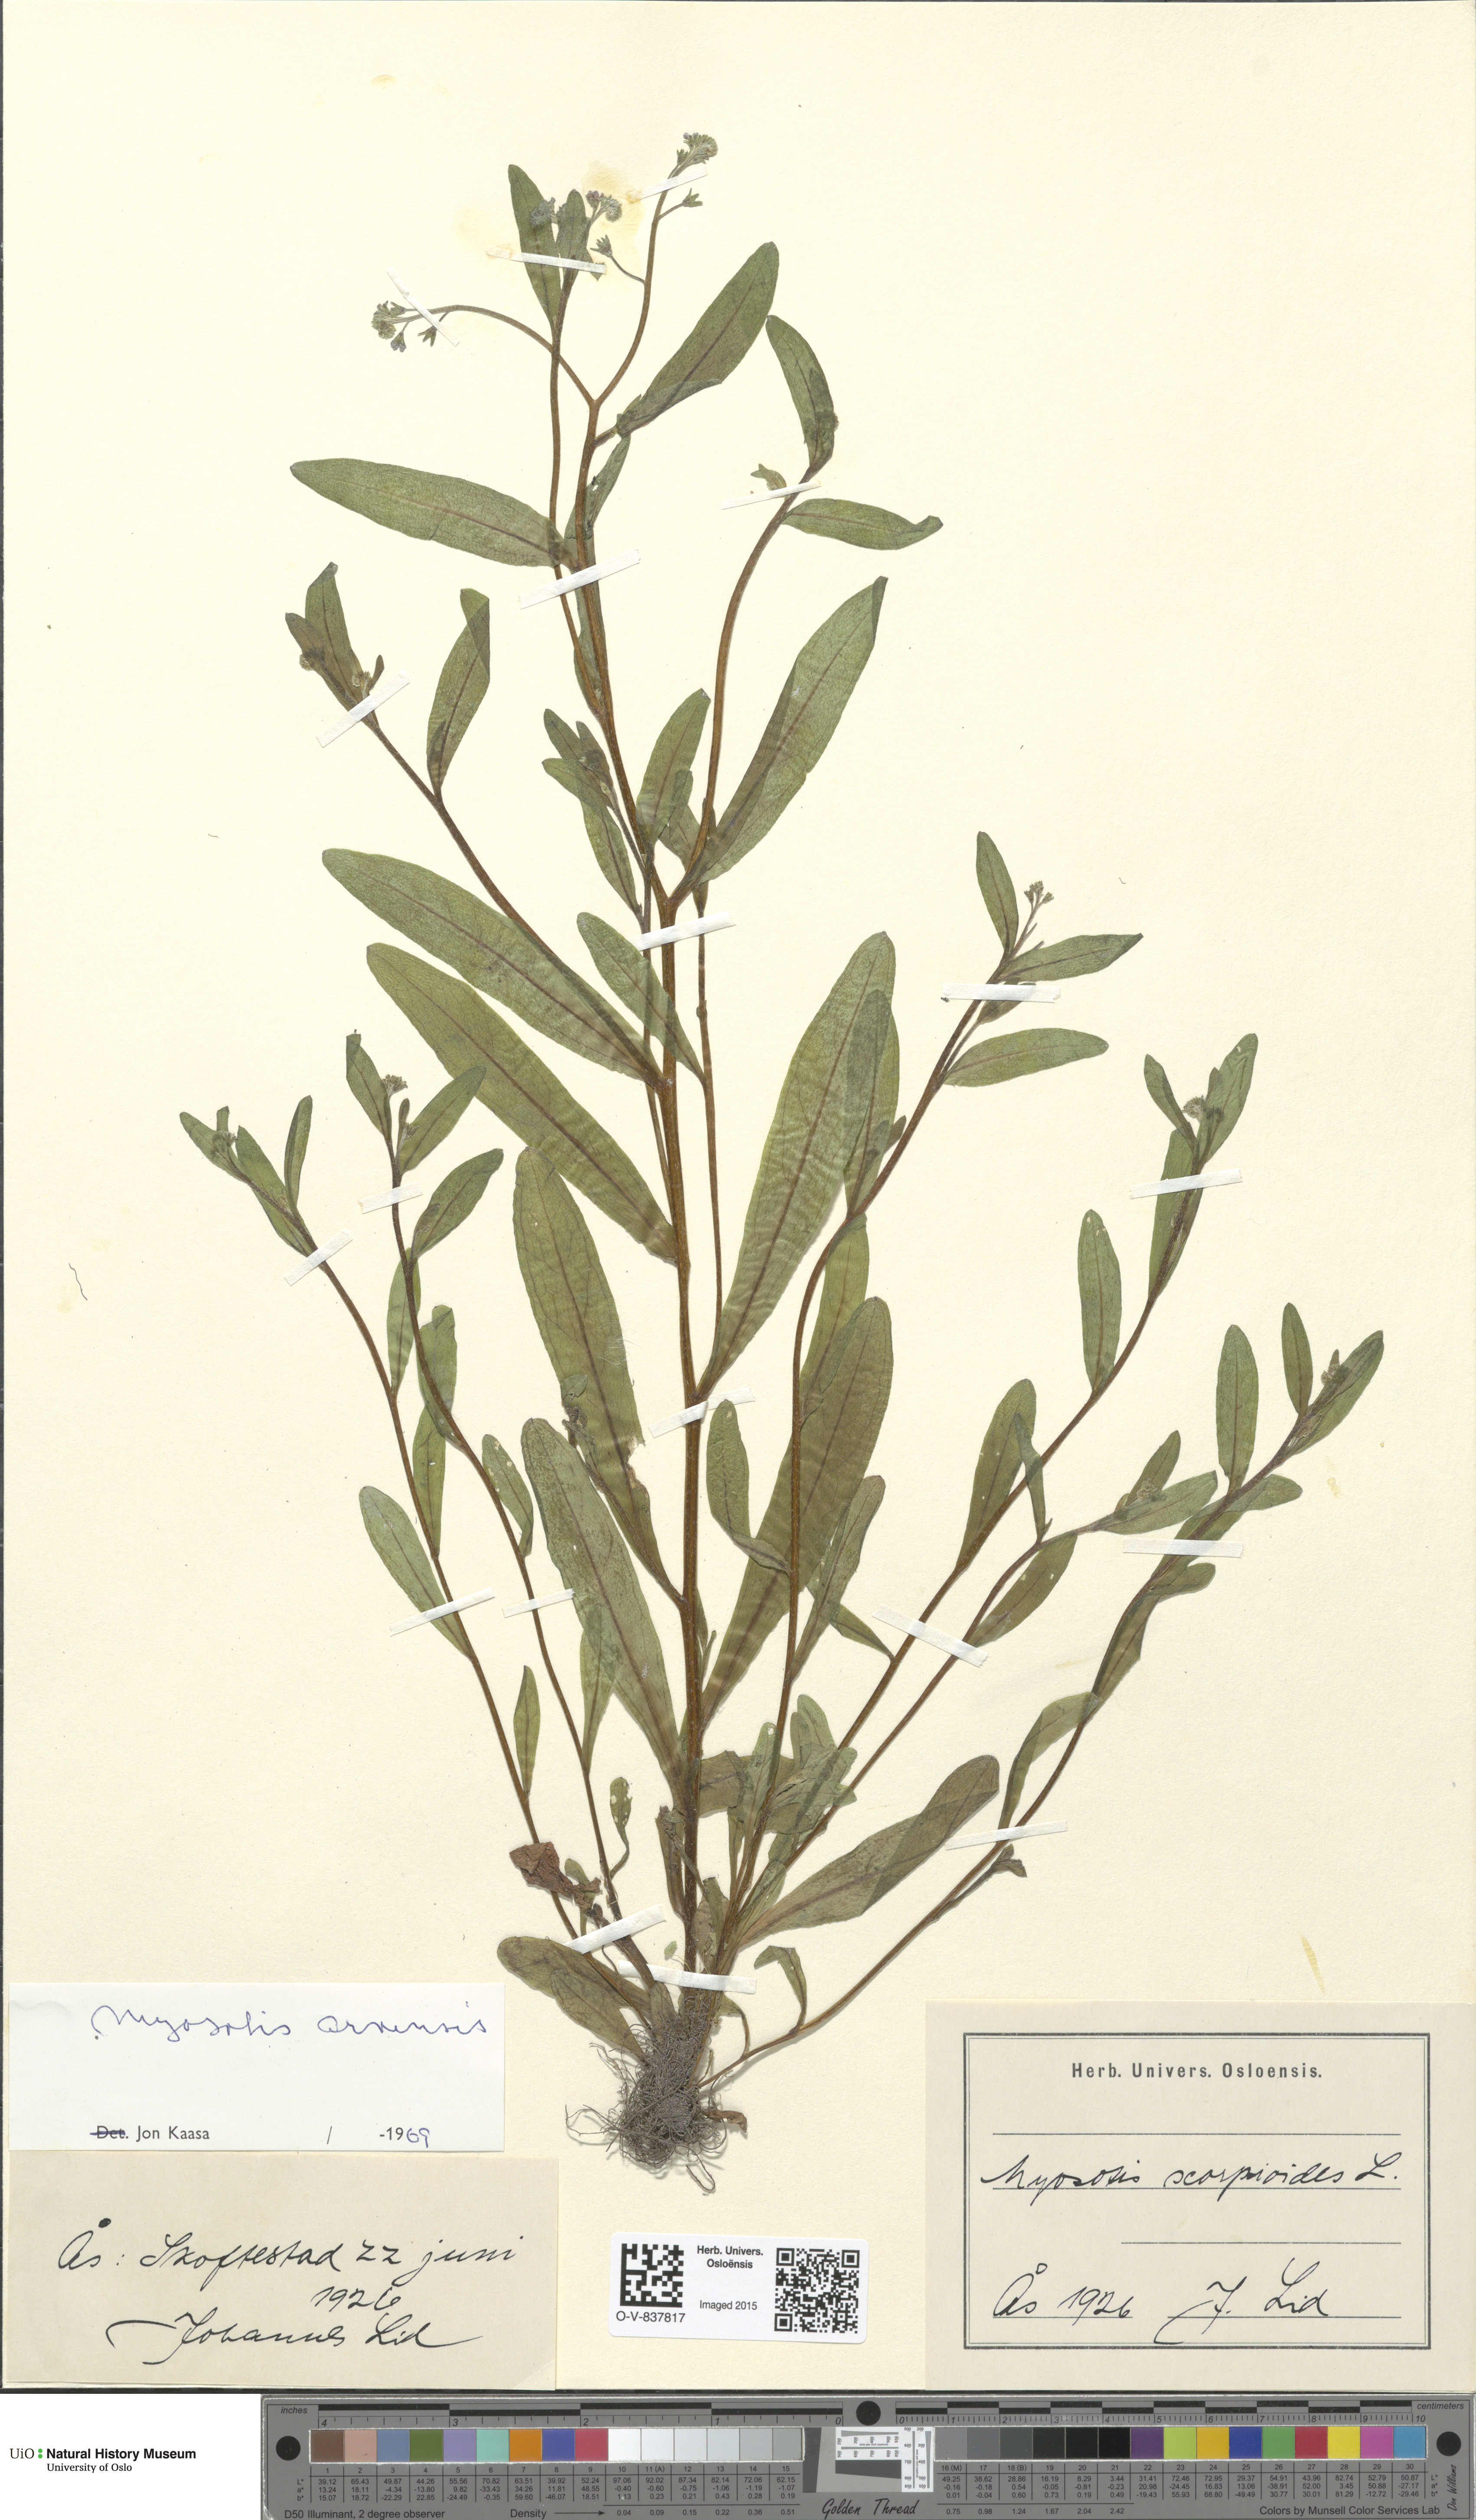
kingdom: Plantae
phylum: Tracheophyta
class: Magnoliopsida
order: Boraginales
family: Boraginaceae
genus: Myosotis
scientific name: Myosotis arvensis
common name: Field forget-me-not
